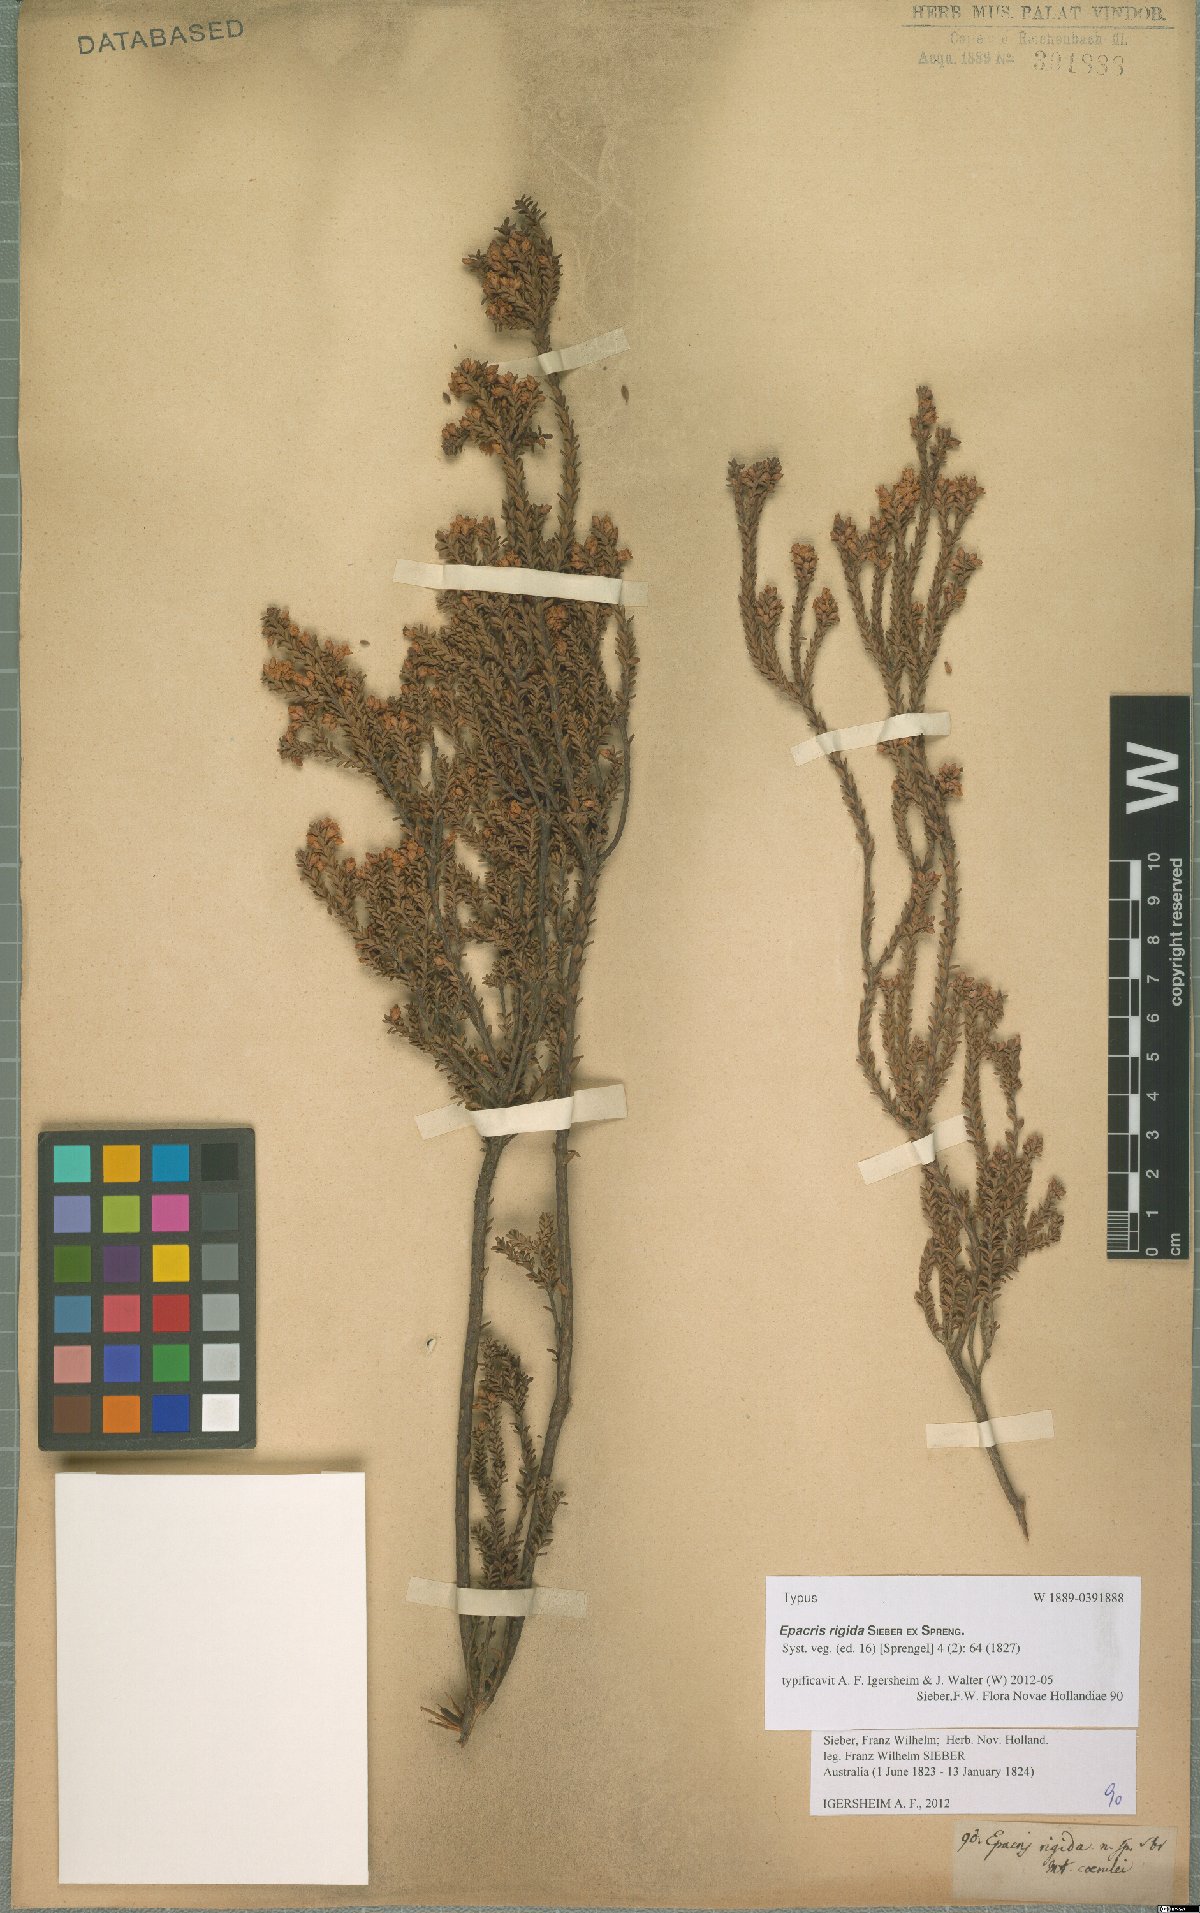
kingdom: Plantae
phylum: Tracheophyta
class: Magnoliopsida
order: Ericales
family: Ericaceae
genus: Epacris
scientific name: Epacris rigida
